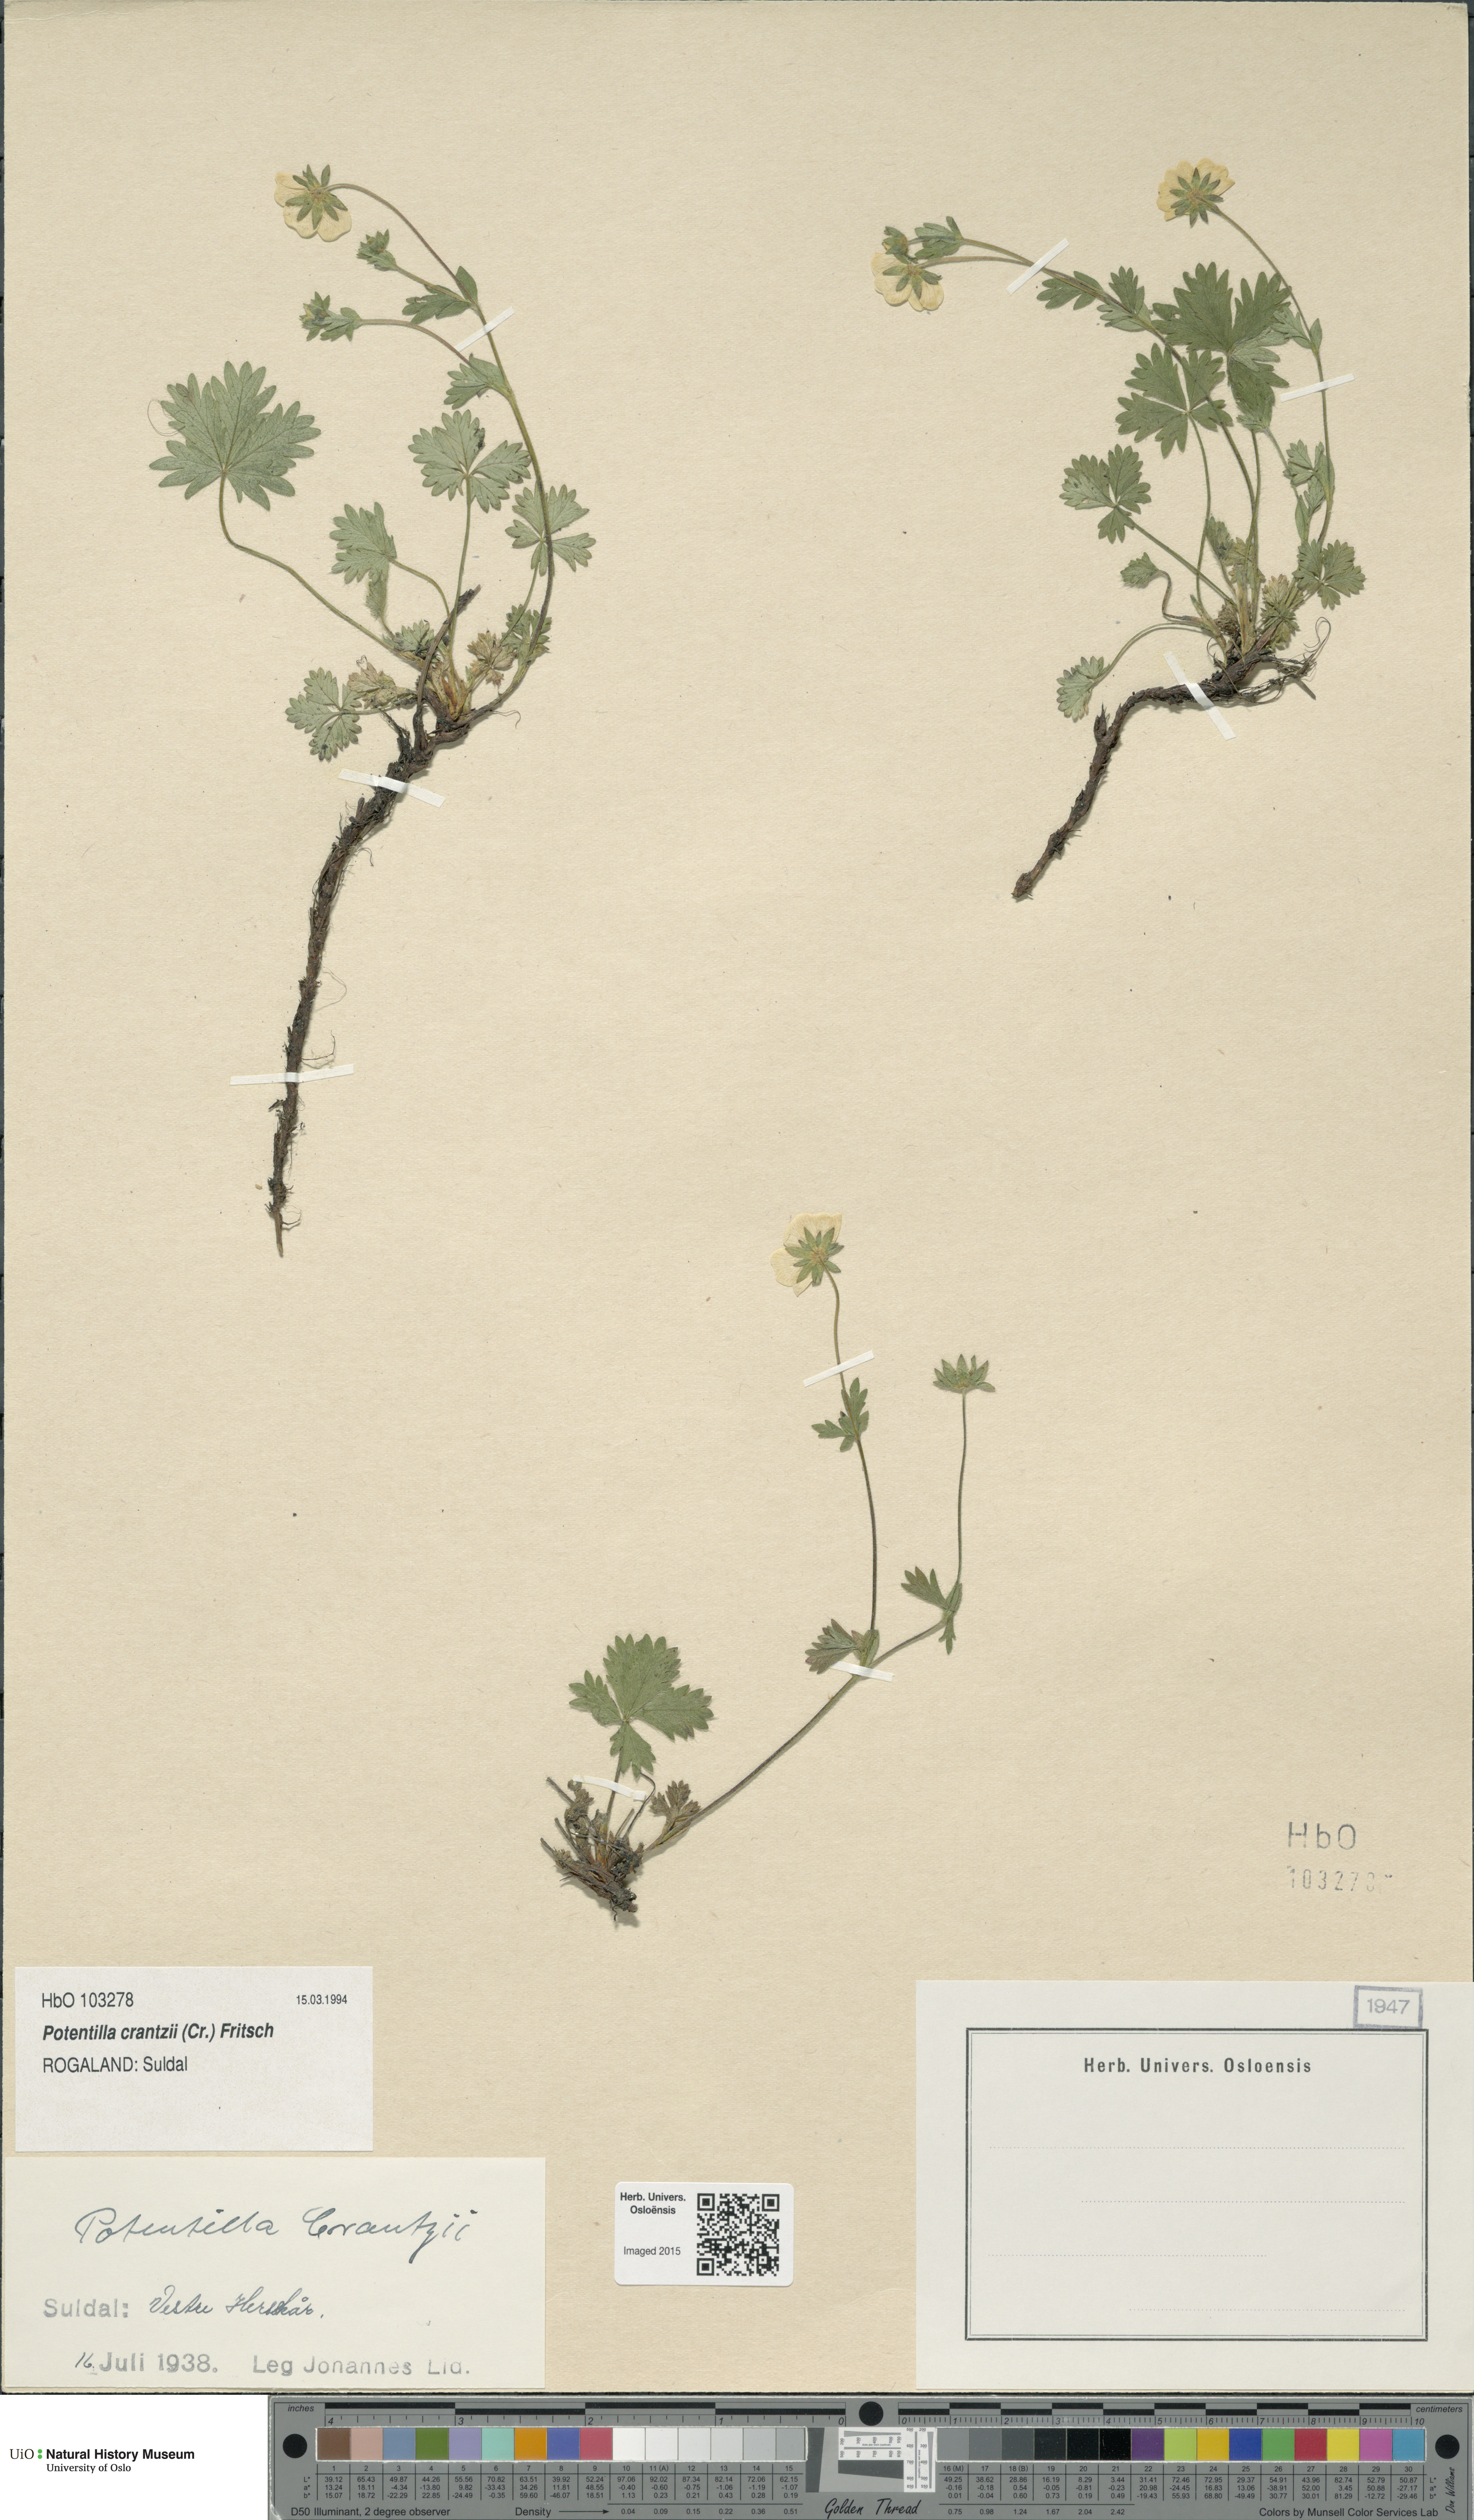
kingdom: Plantae
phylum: Tracheophyta
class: Magnoliopsida
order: Rosales
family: Rosaceae
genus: Potentilla
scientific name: Potentilla crantzii
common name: Alpine cinquefoil
